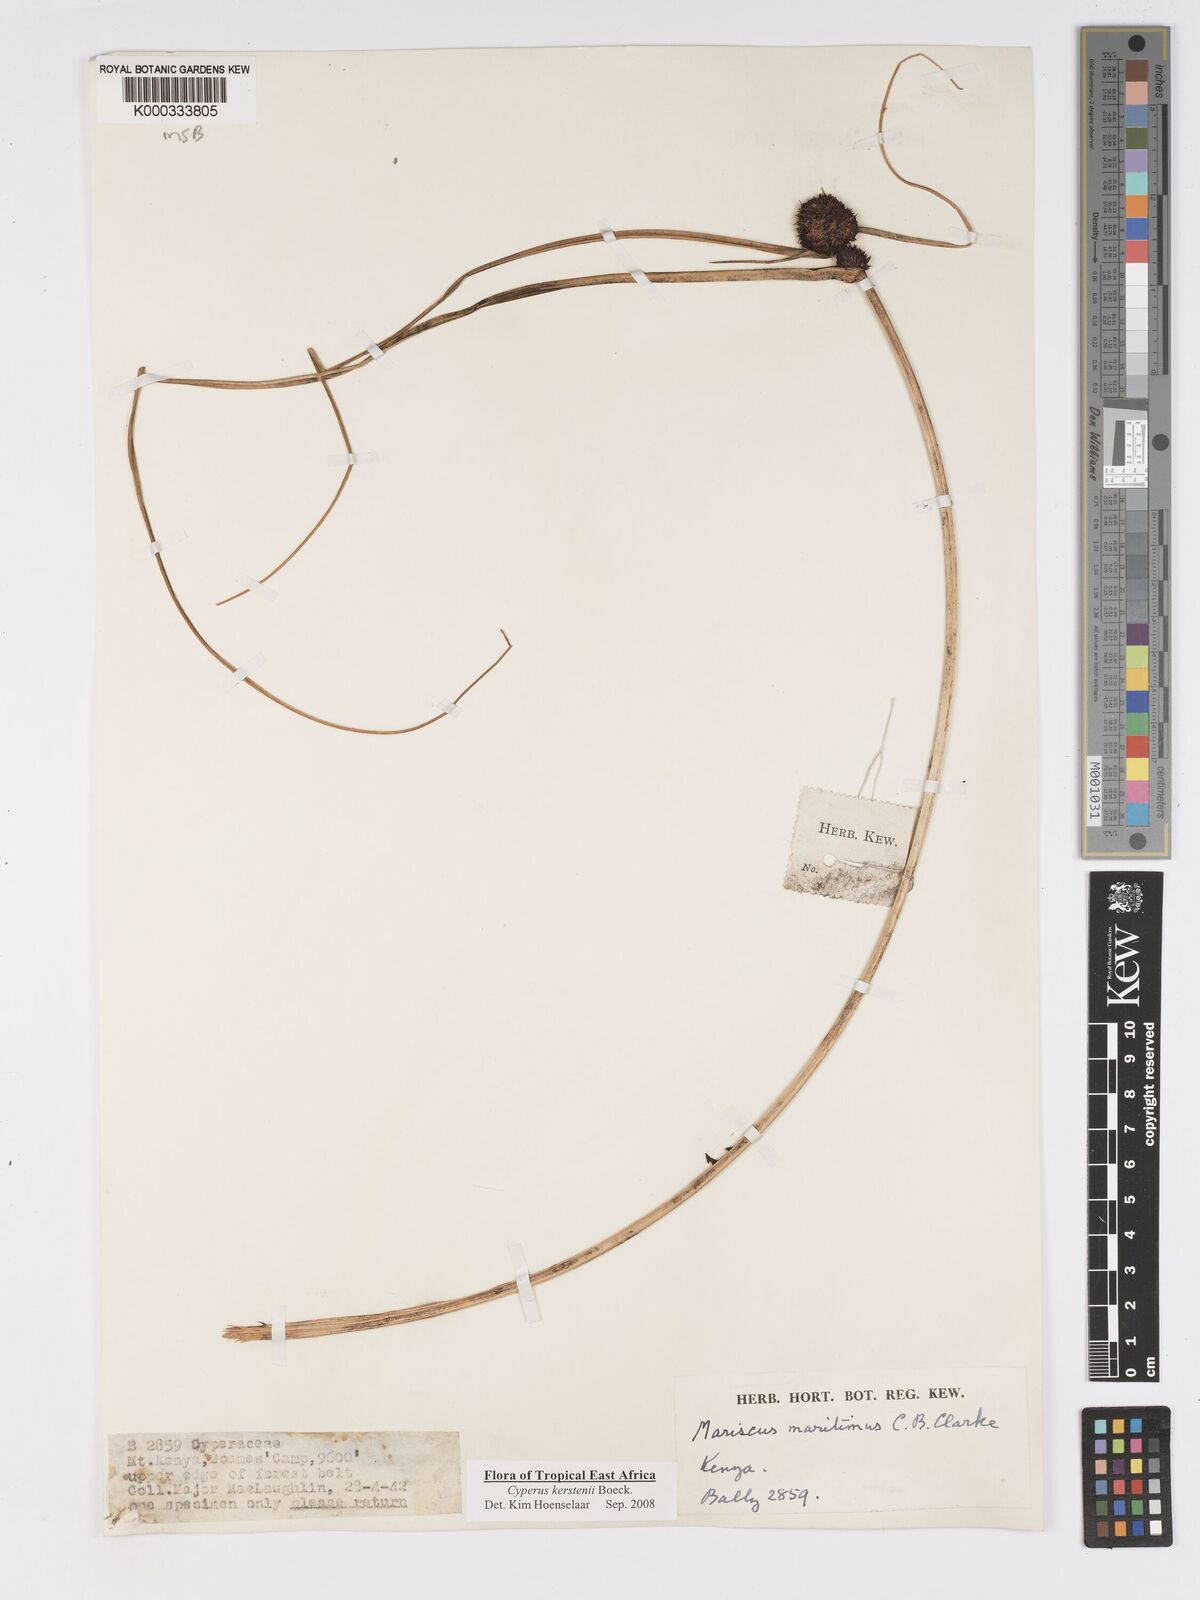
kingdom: Plantae
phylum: Tracheophyta
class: Liliopsida
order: Poales
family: Cyperaceae
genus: Cyperus
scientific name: Cyperus kerstenii
